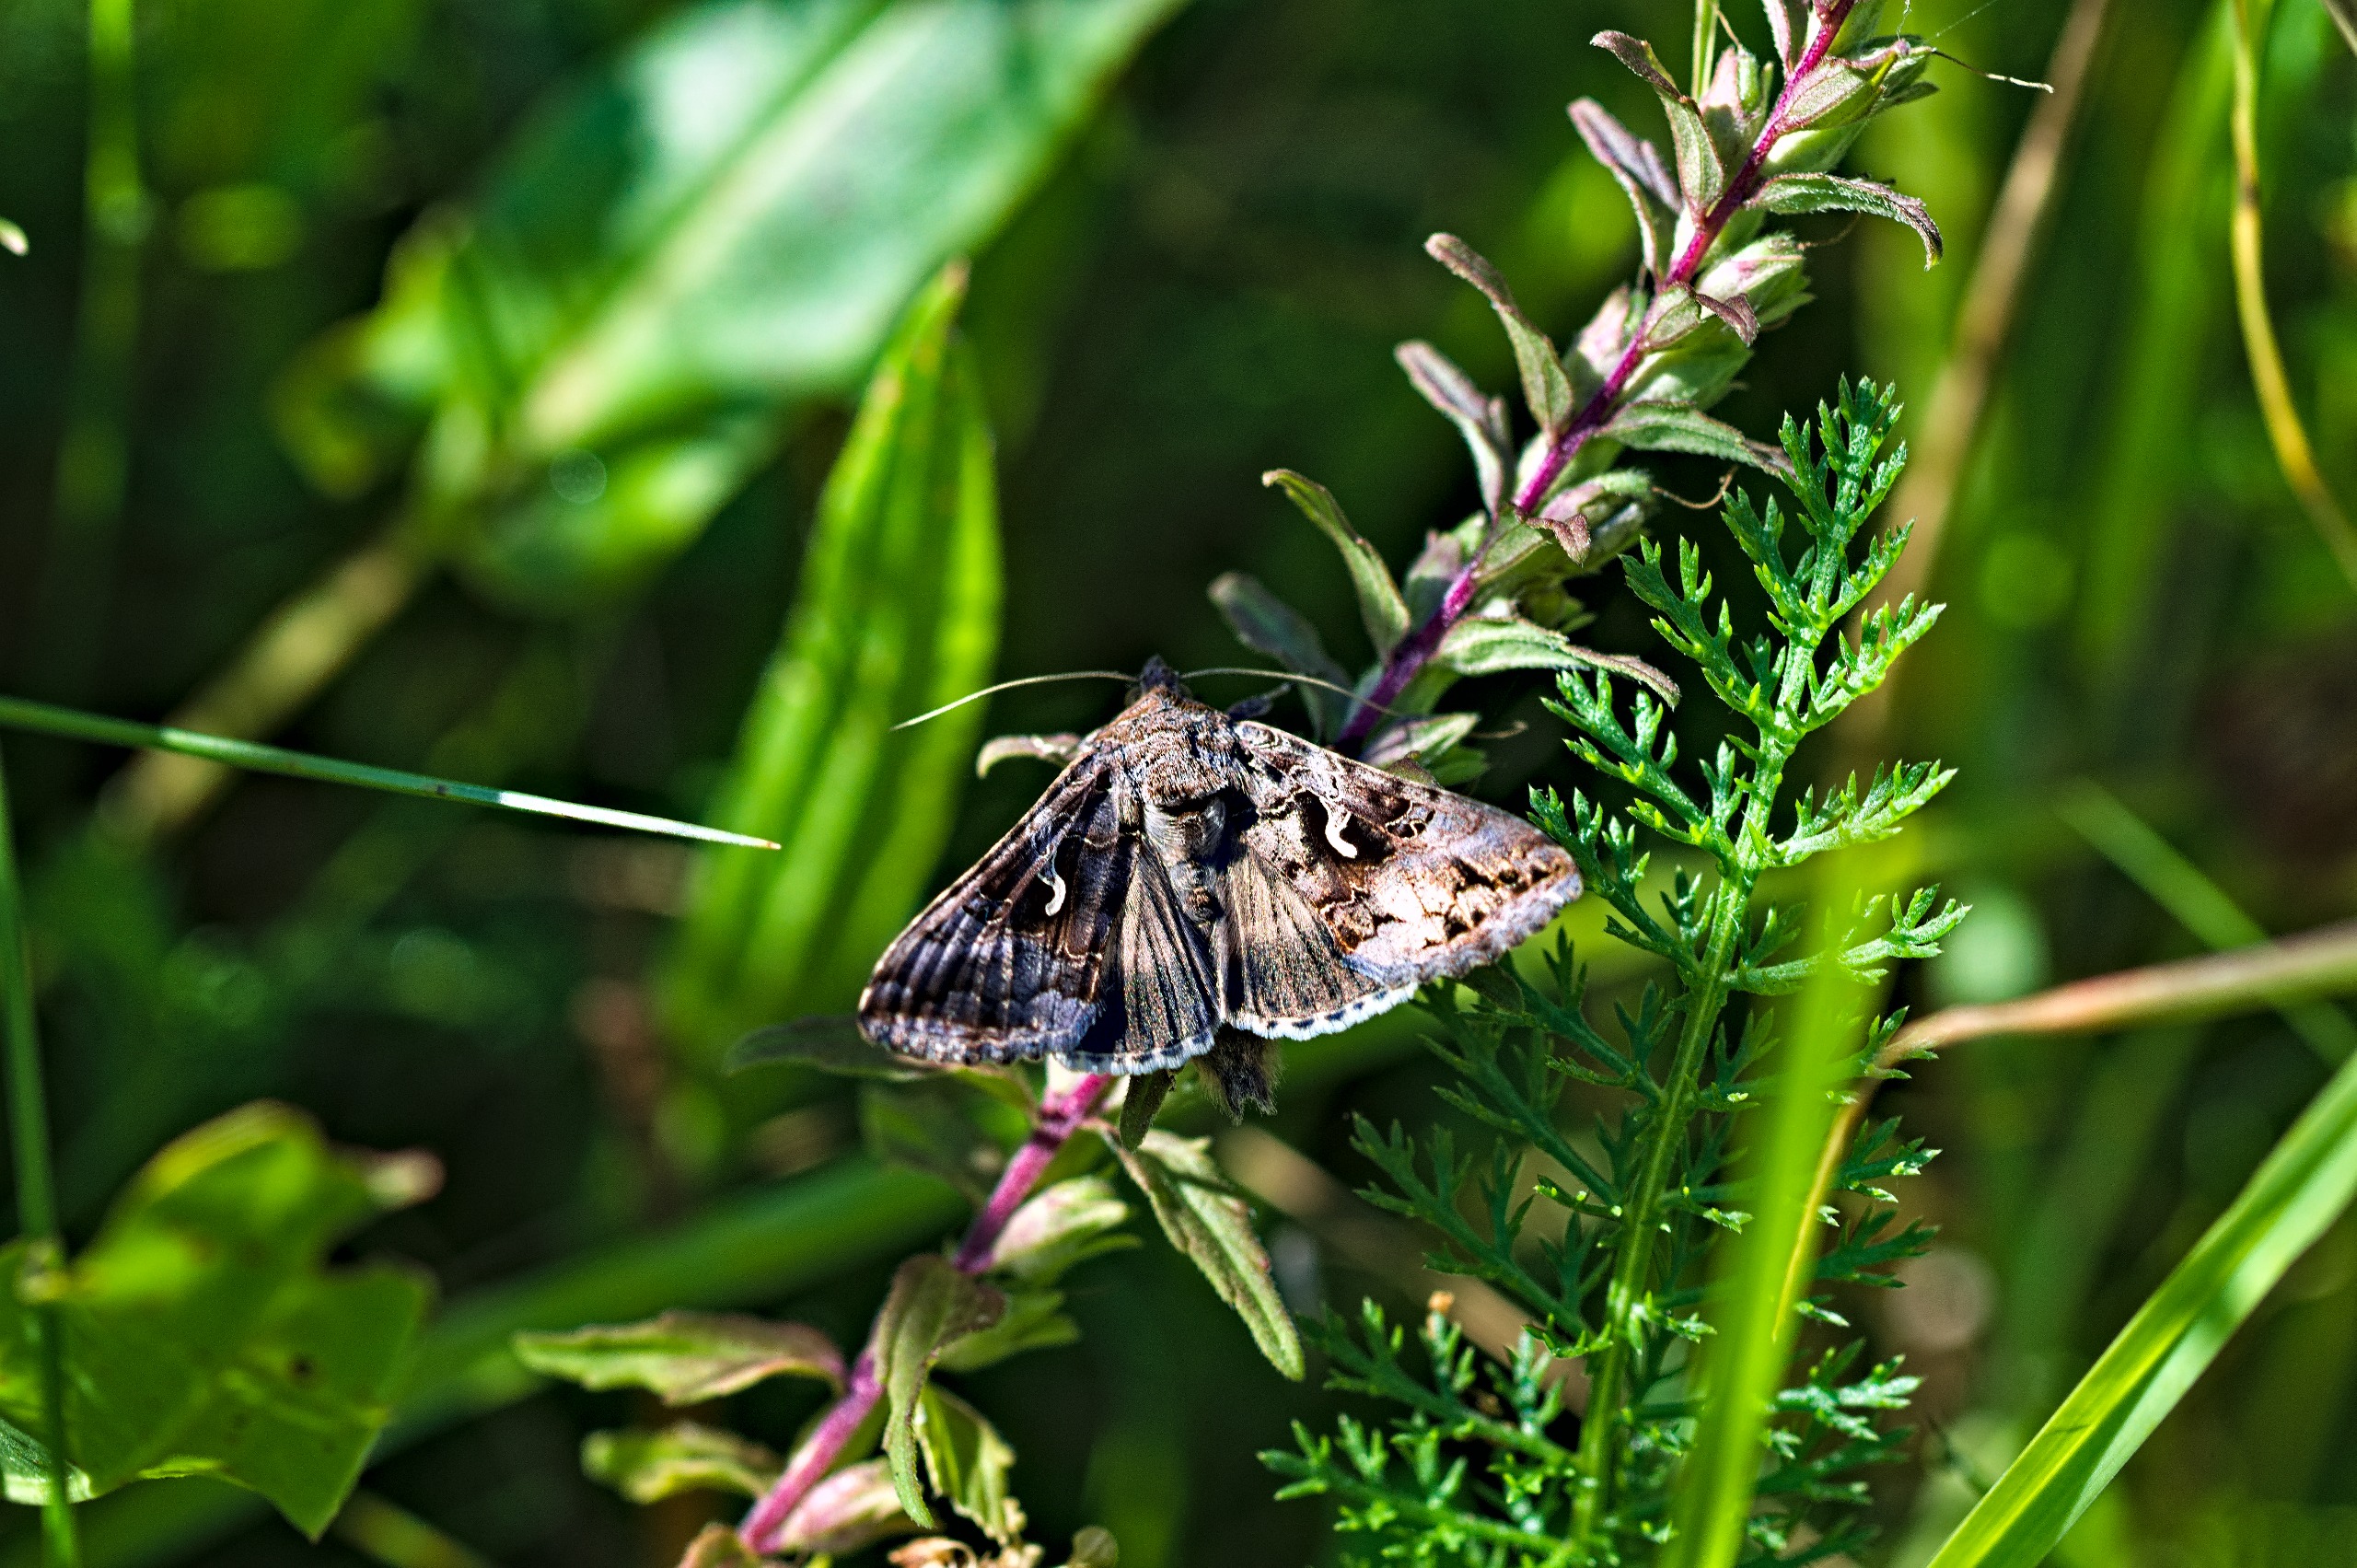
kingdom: Animalia
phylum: Arthropoda
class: Insecta
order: Lepidoptera
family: Noctuidae
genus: Autographa
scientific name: Autographa gamma
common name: Gammaugle
